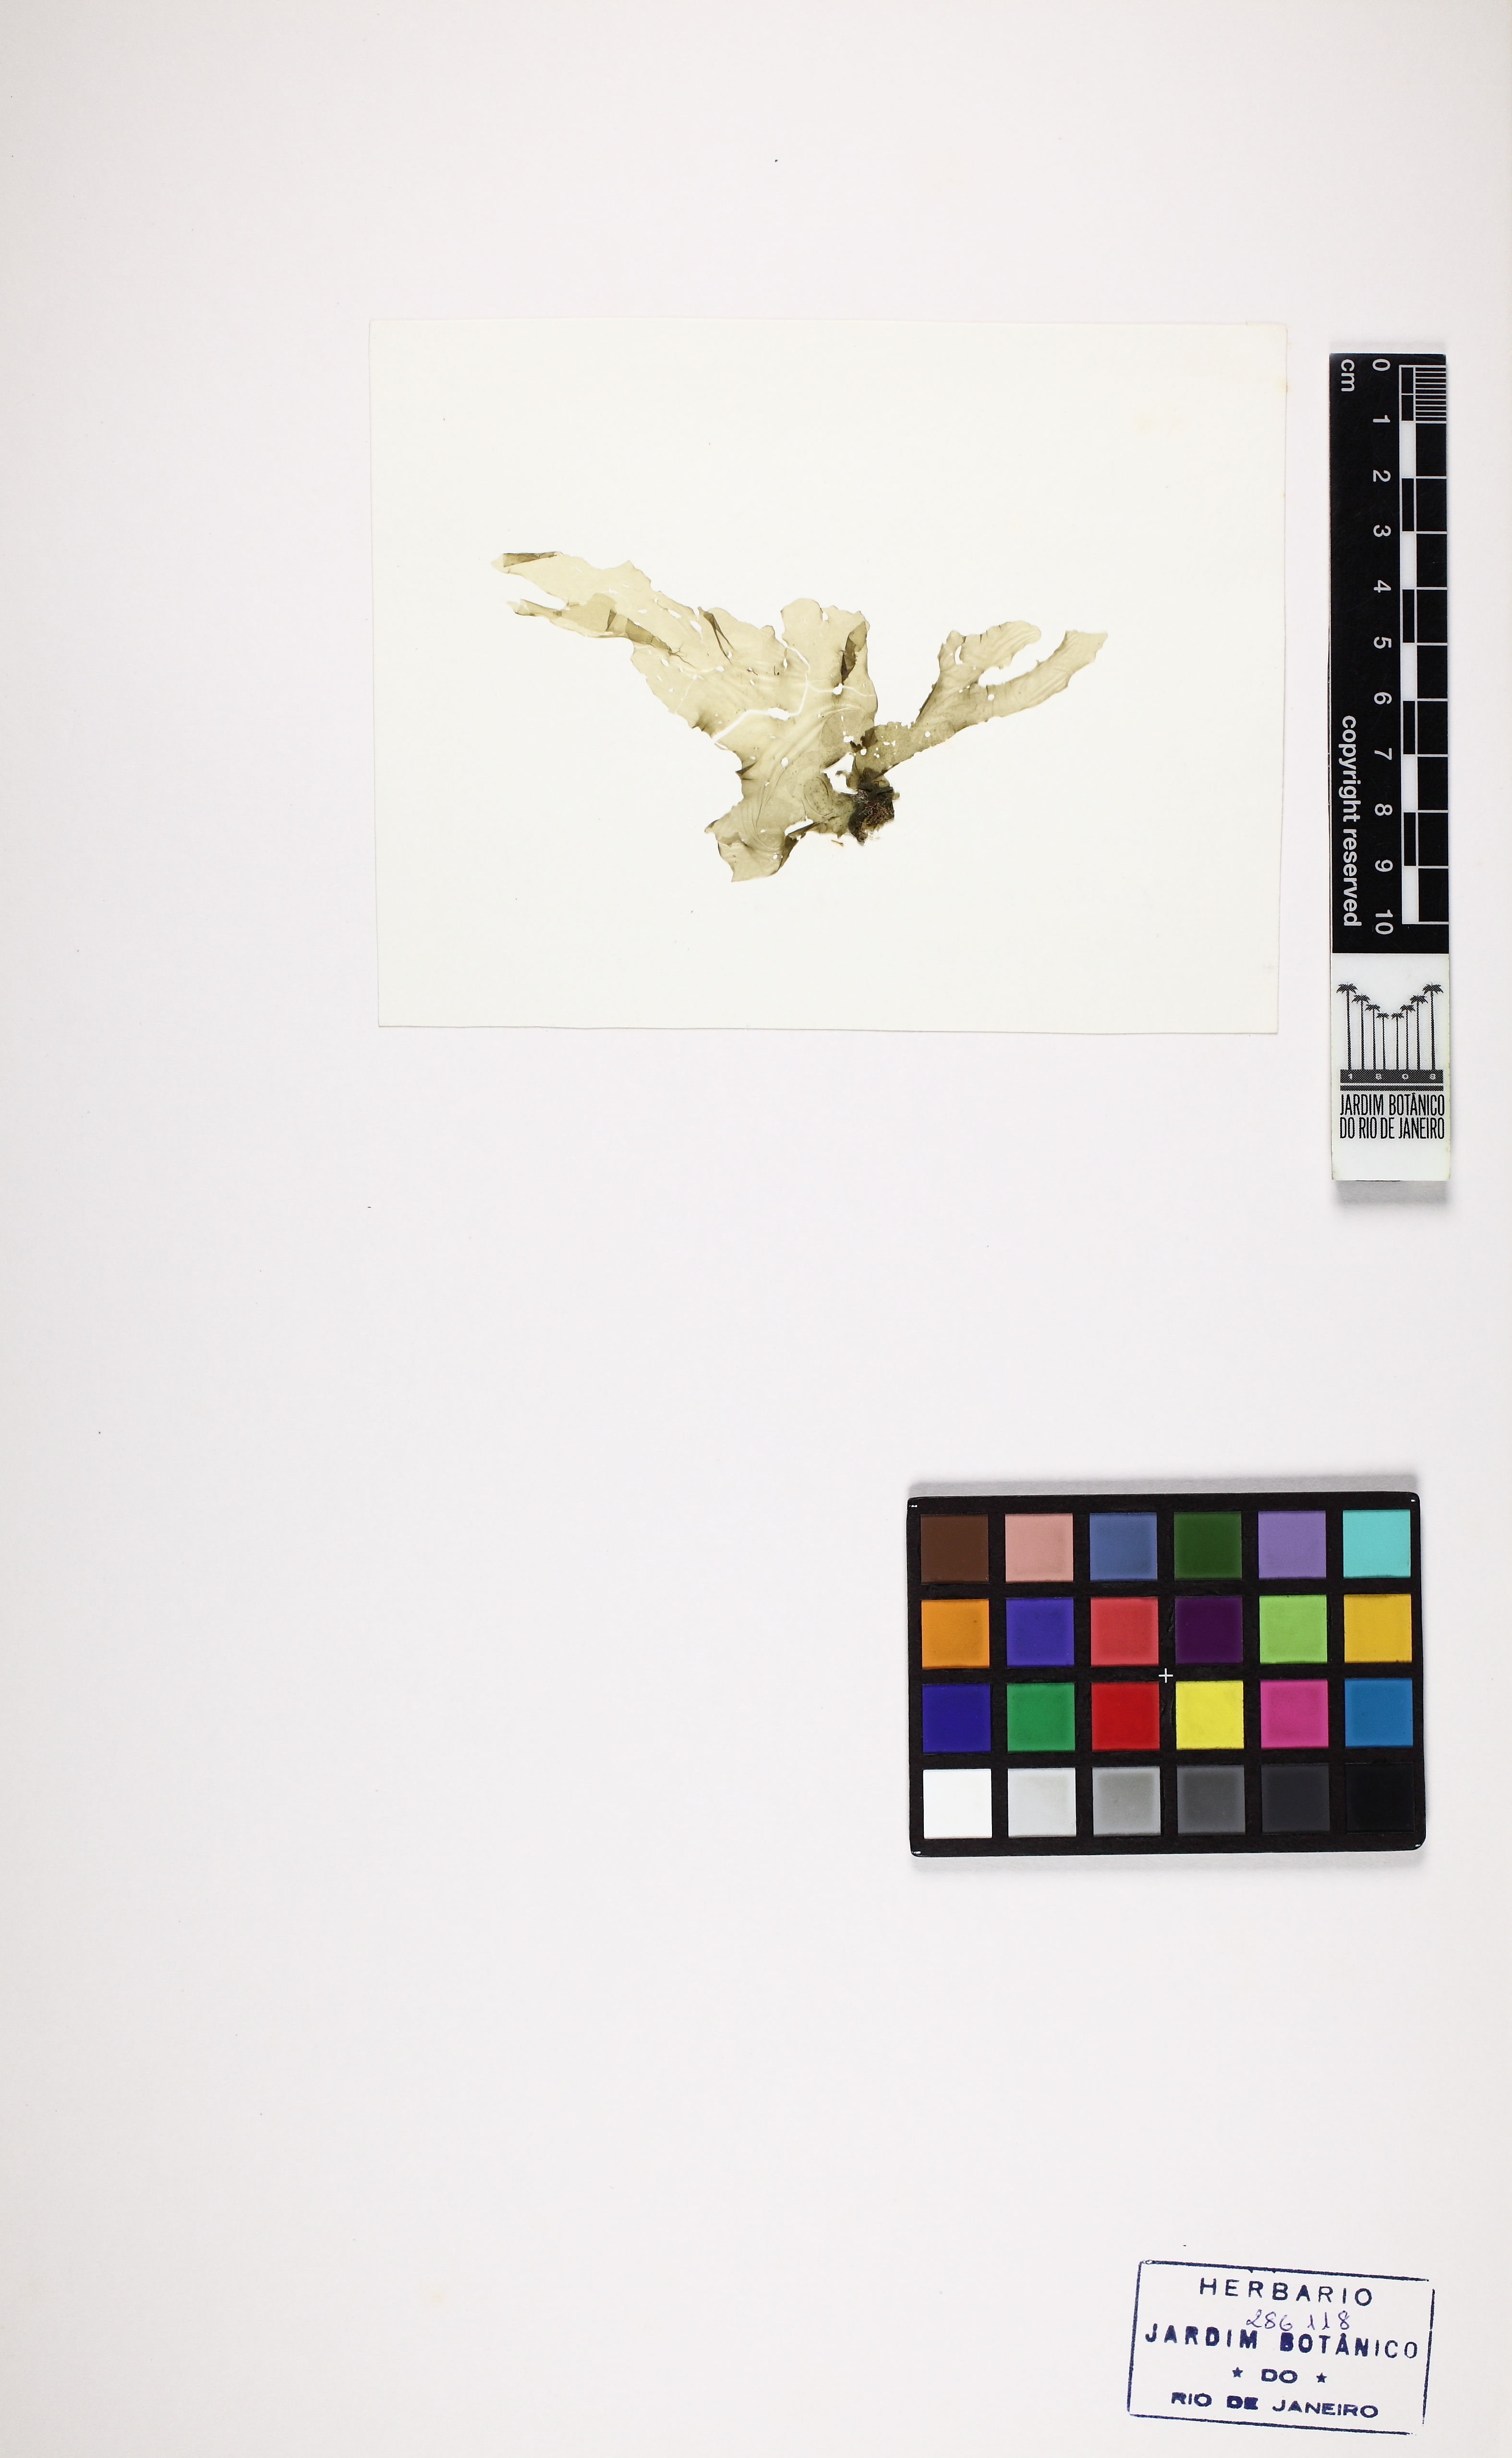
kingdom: Plantae
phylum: Chlorophyta
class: Ulvophyceae
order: Ulvales
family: Ulvaceae
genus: Ulva
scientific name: Ulva lactuca
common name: Sea lettuce
